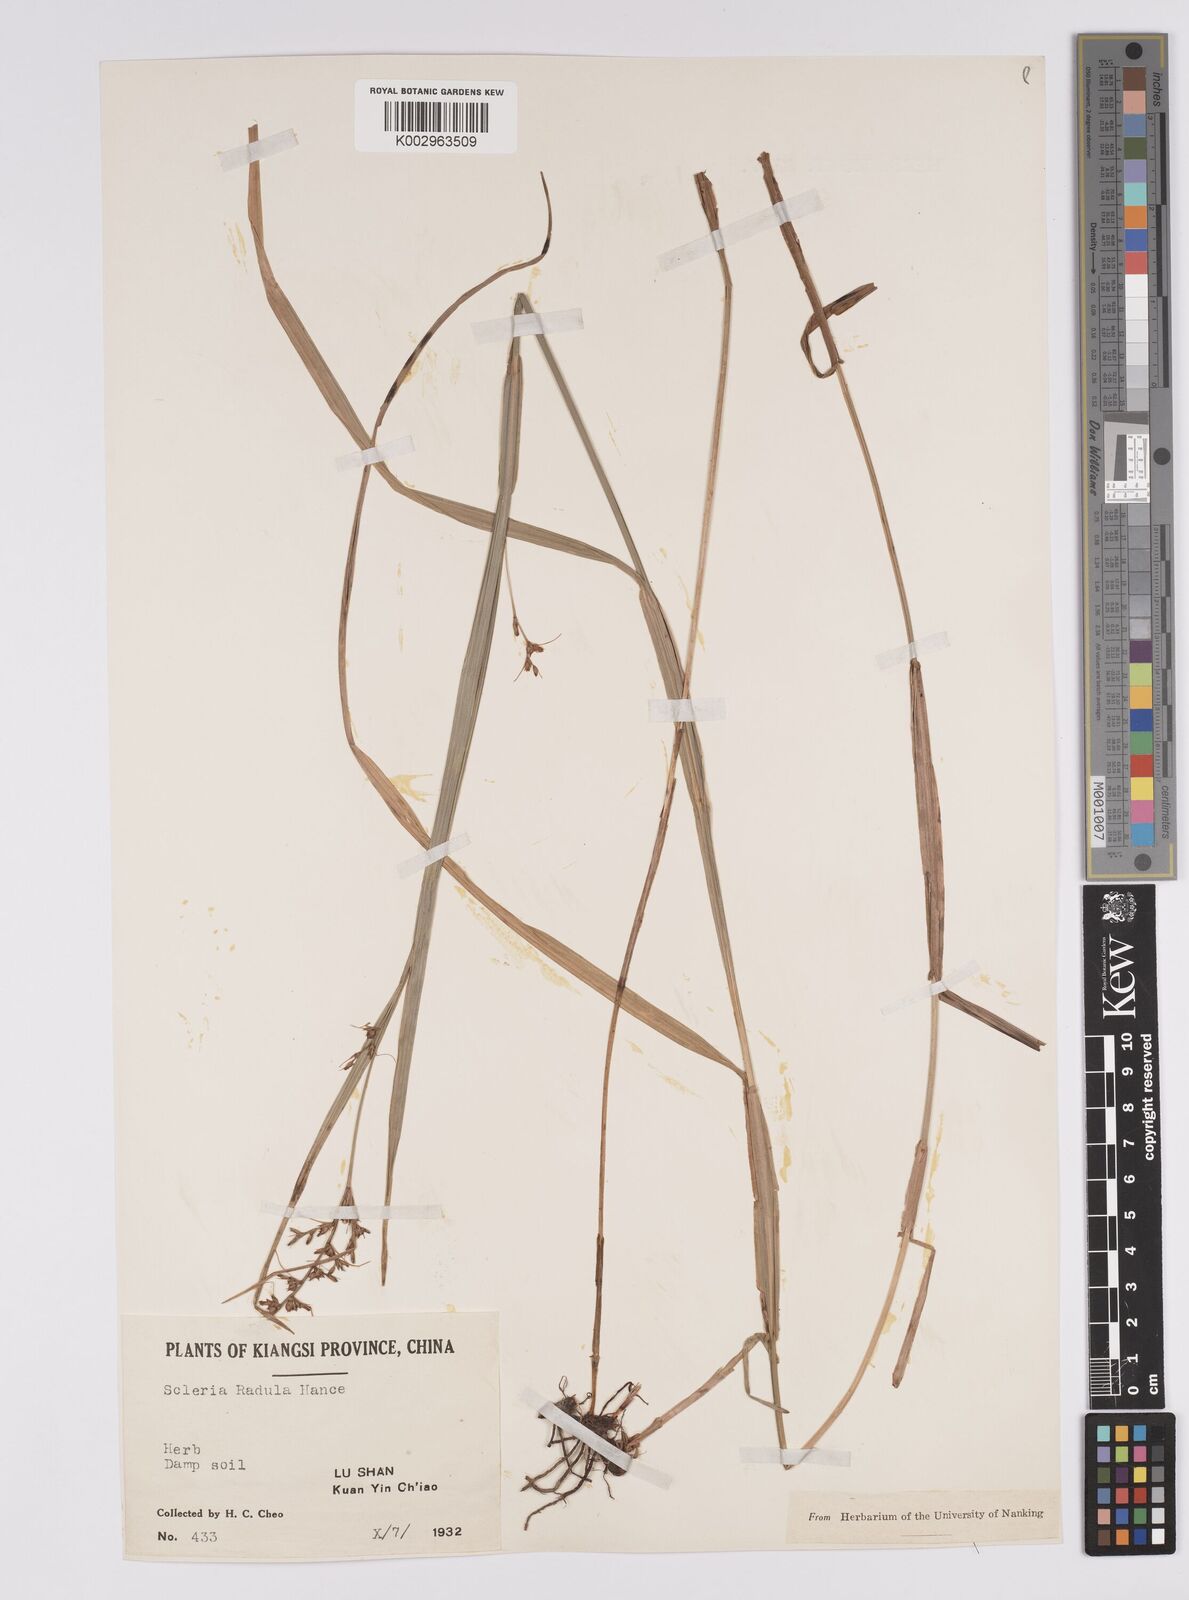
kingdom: Plantae
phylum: Tracheophyta
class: Liliopsida
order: Poales
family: Cyperaceae
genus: Scleria
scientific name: Scleria radula
